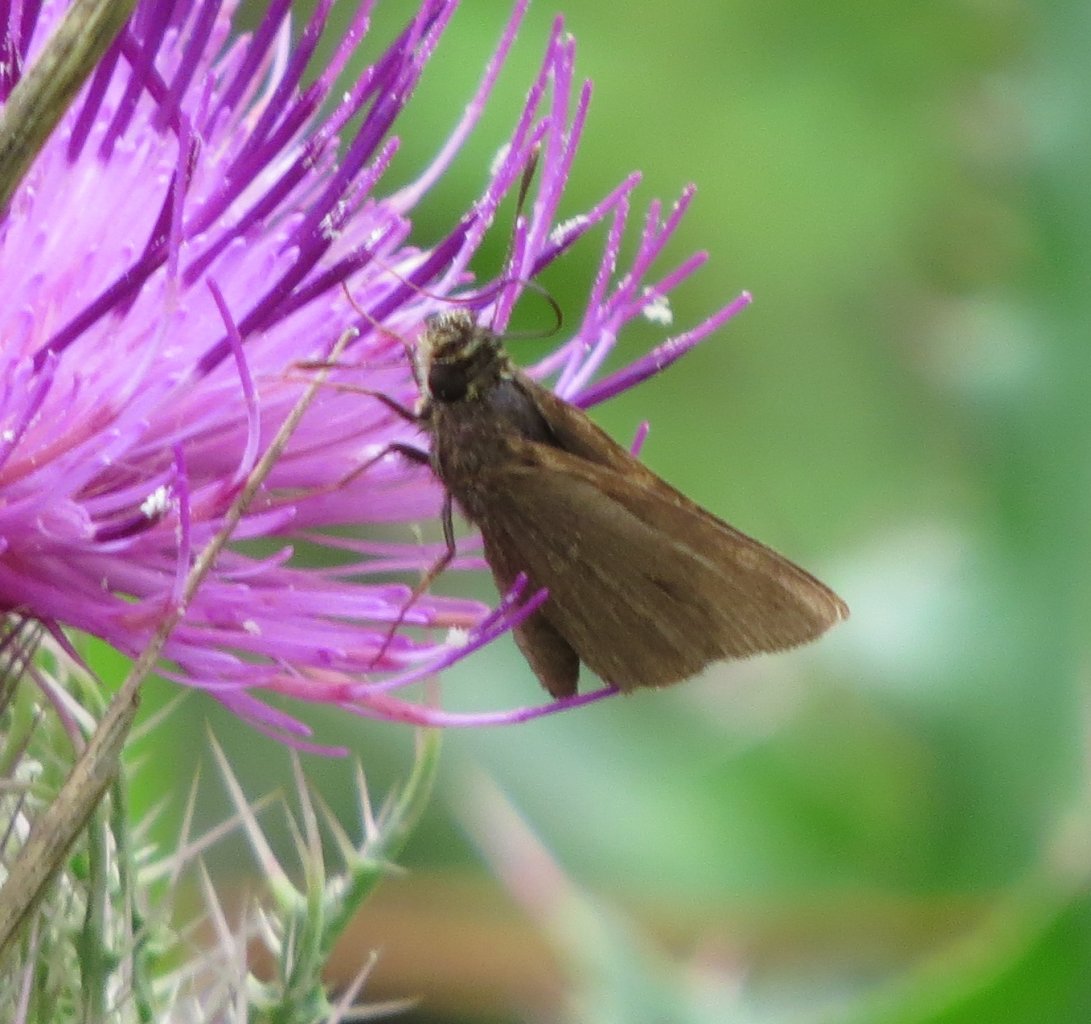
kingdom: Animalia
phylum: Arthropoda
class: Insecta
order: Lepidoptera
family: Hesperiidae
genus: Nastra
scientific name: Nastra lherminier
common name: Swarthy Skipper
